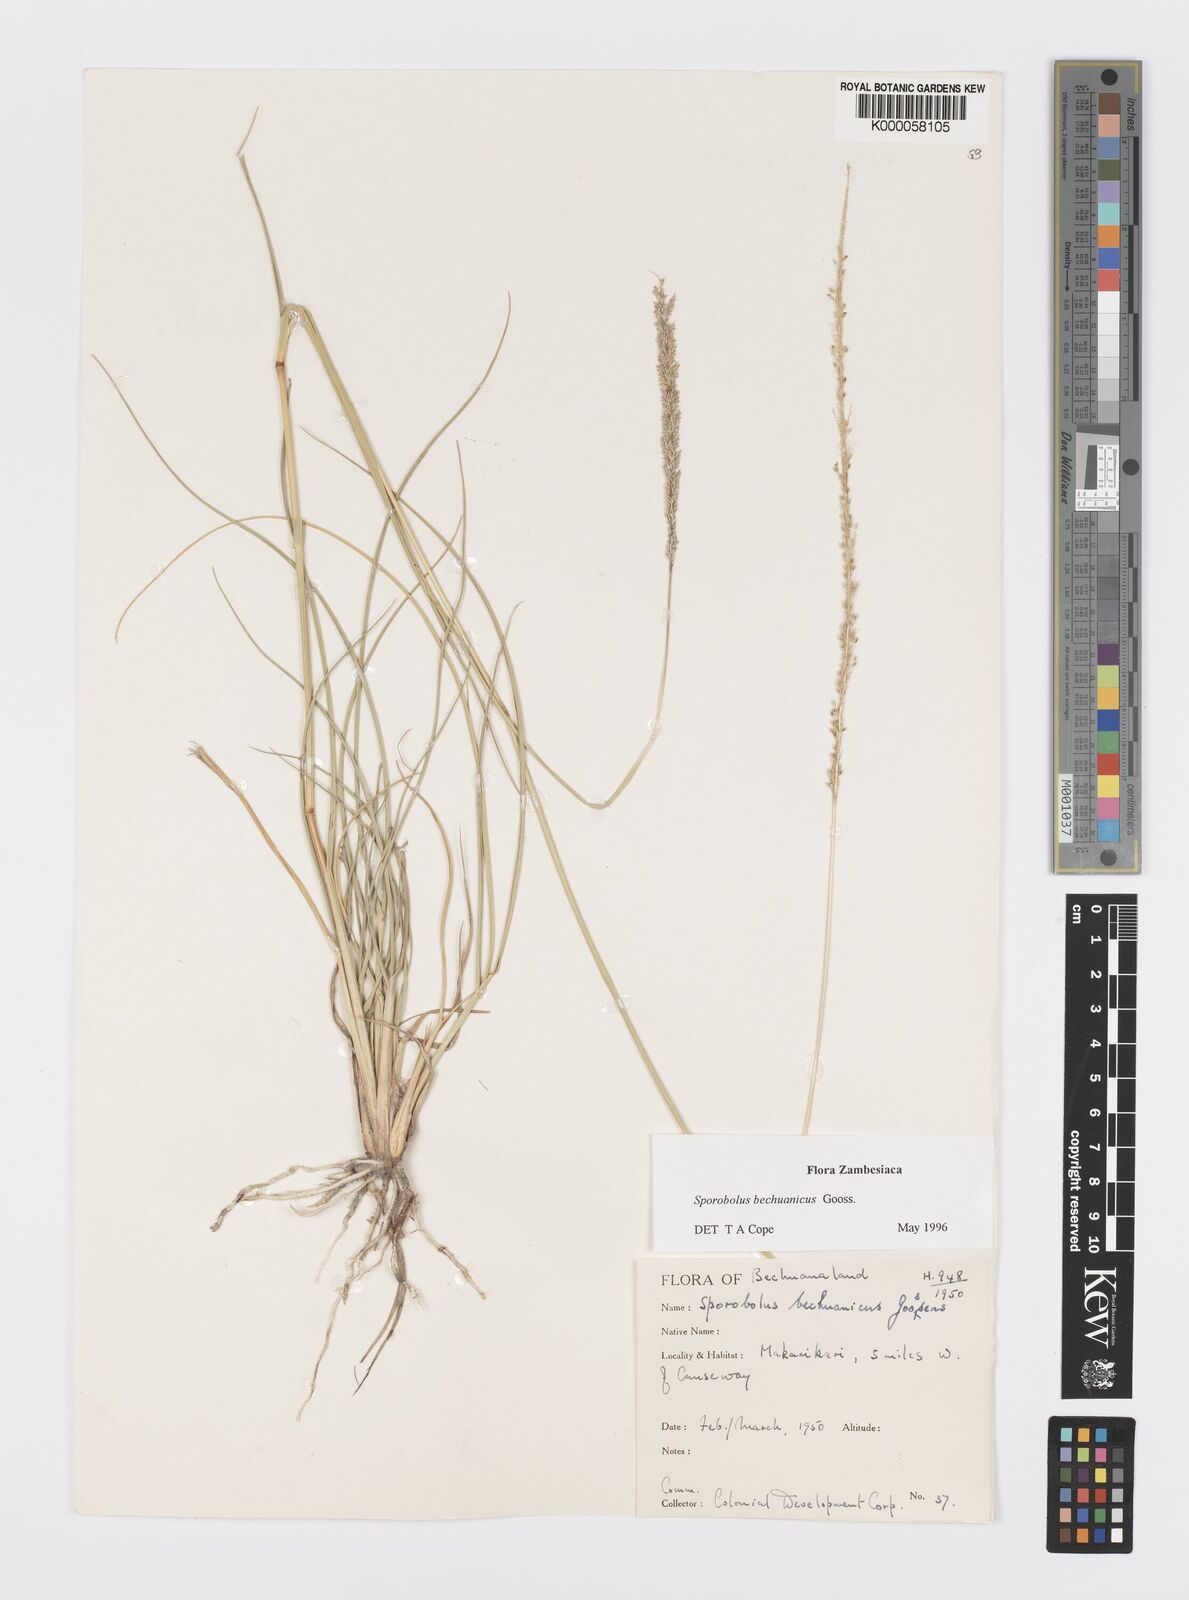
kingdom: Plantae
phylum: Tracheophyta
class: Liliopsida
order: Poales
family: Poaceae
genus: Sporobolus
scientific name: Sporobolus bechuanicus
